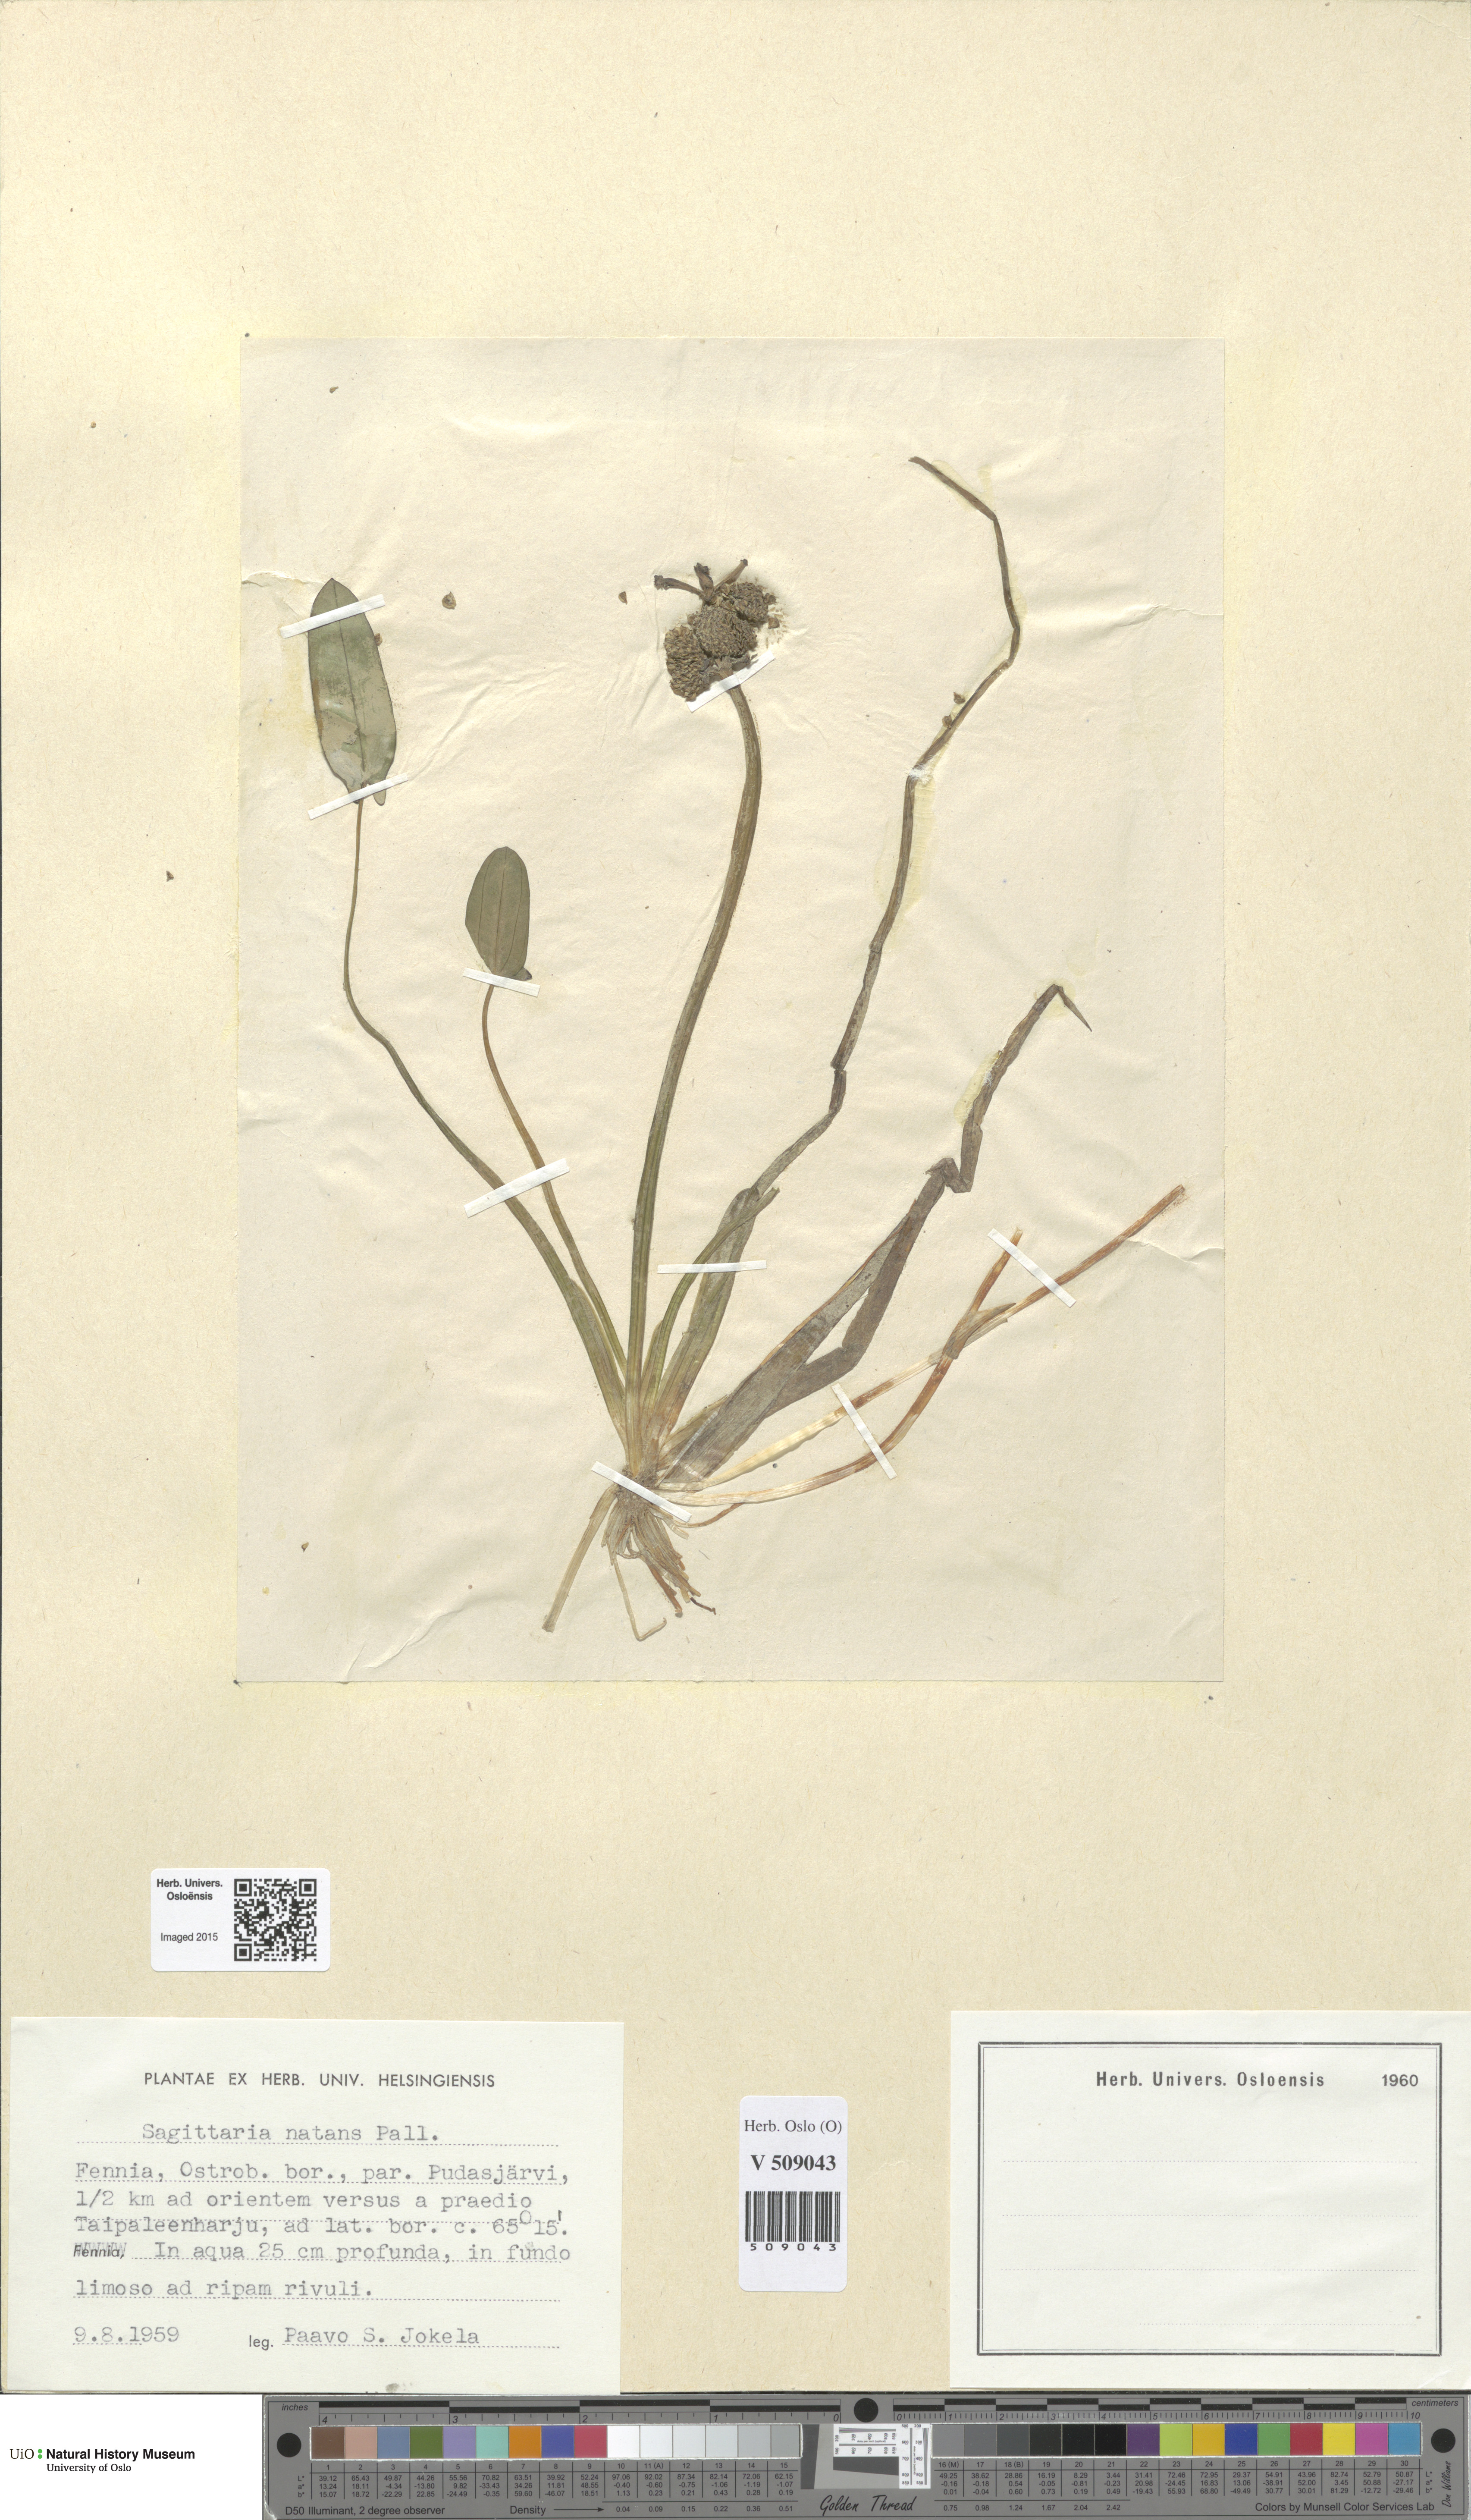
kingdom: Plantae
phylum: Tracheophyta
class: Liliopsida
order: Alismatales
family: Alismataceae
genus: Sagittaria
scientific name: Sagittaria natans
